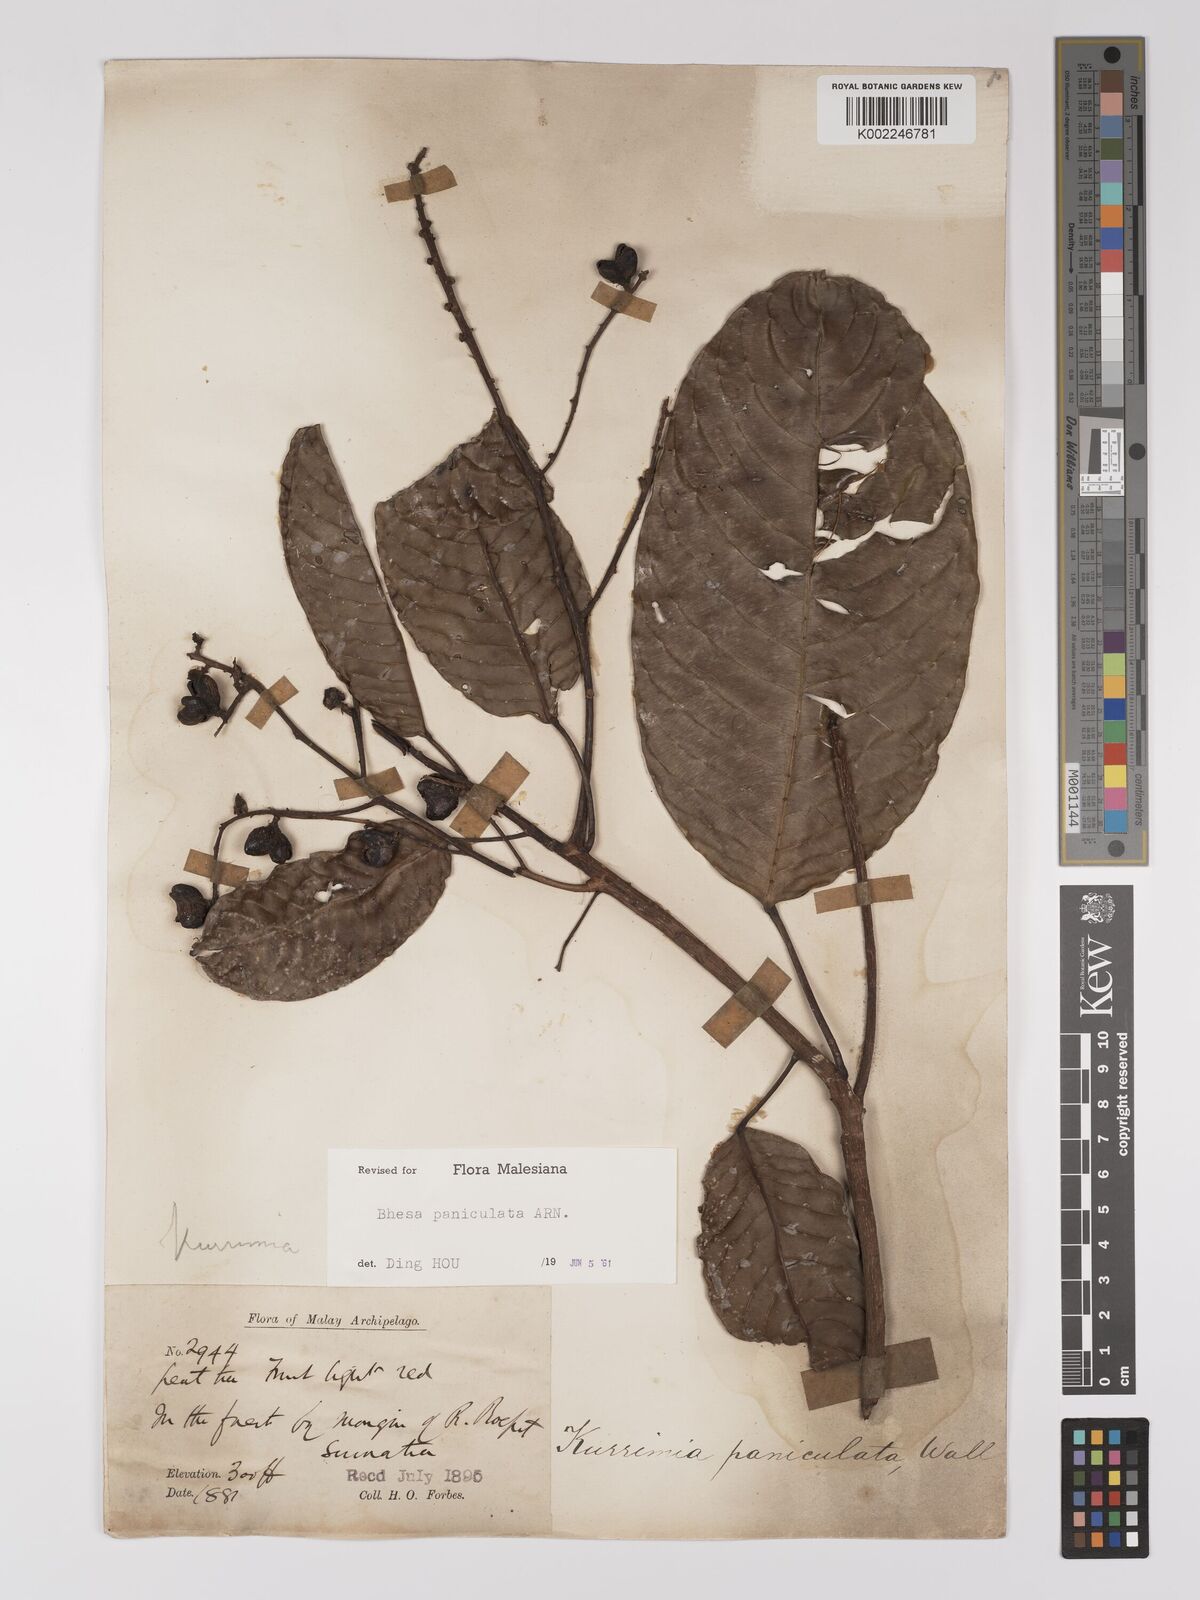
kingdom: Plantae
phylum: Tracheophyta
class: Magnoliopsida
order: Malpighiales
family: Centroplacaceae
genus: Bhesa
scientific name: Bhesa paniculata
